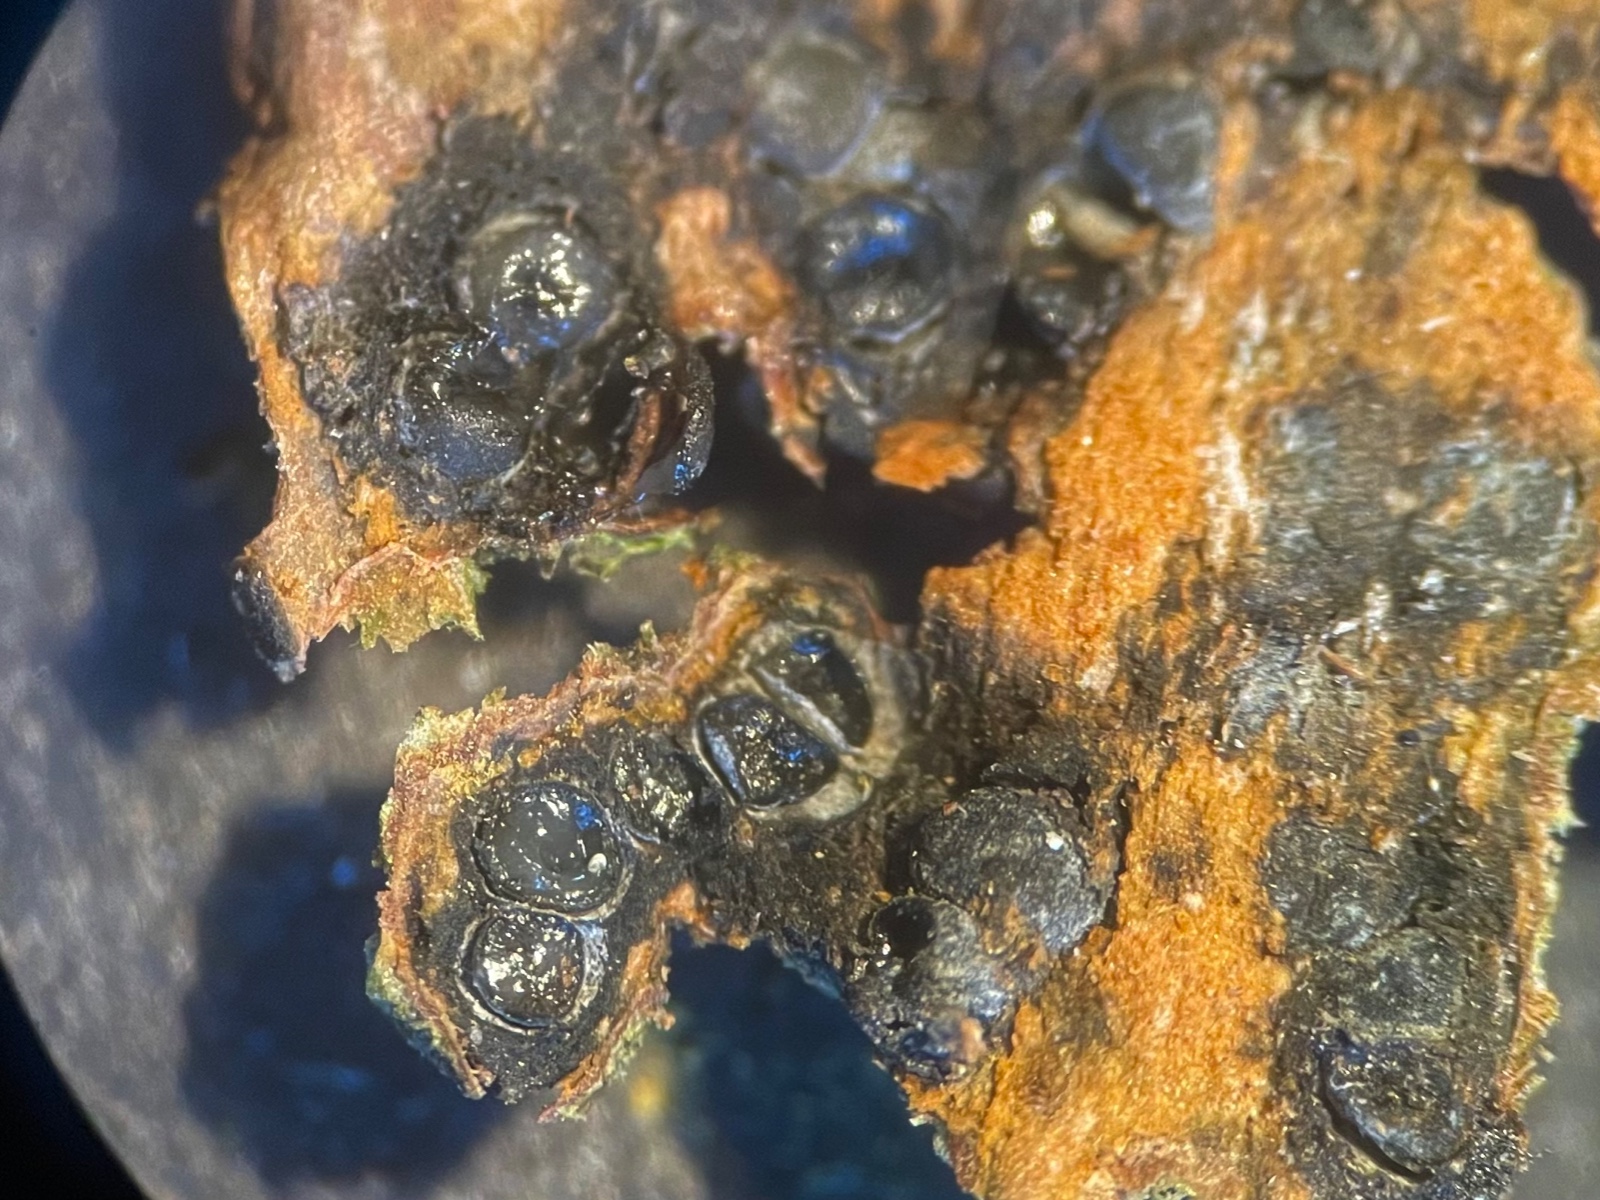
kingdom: Fungi
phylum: Ascomycota
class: Sordariomycetes
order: Xylariales
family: Melogrammataceae
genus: Melogramma
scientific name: Melogramma spiniferum
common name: bøgefod-kulhals
